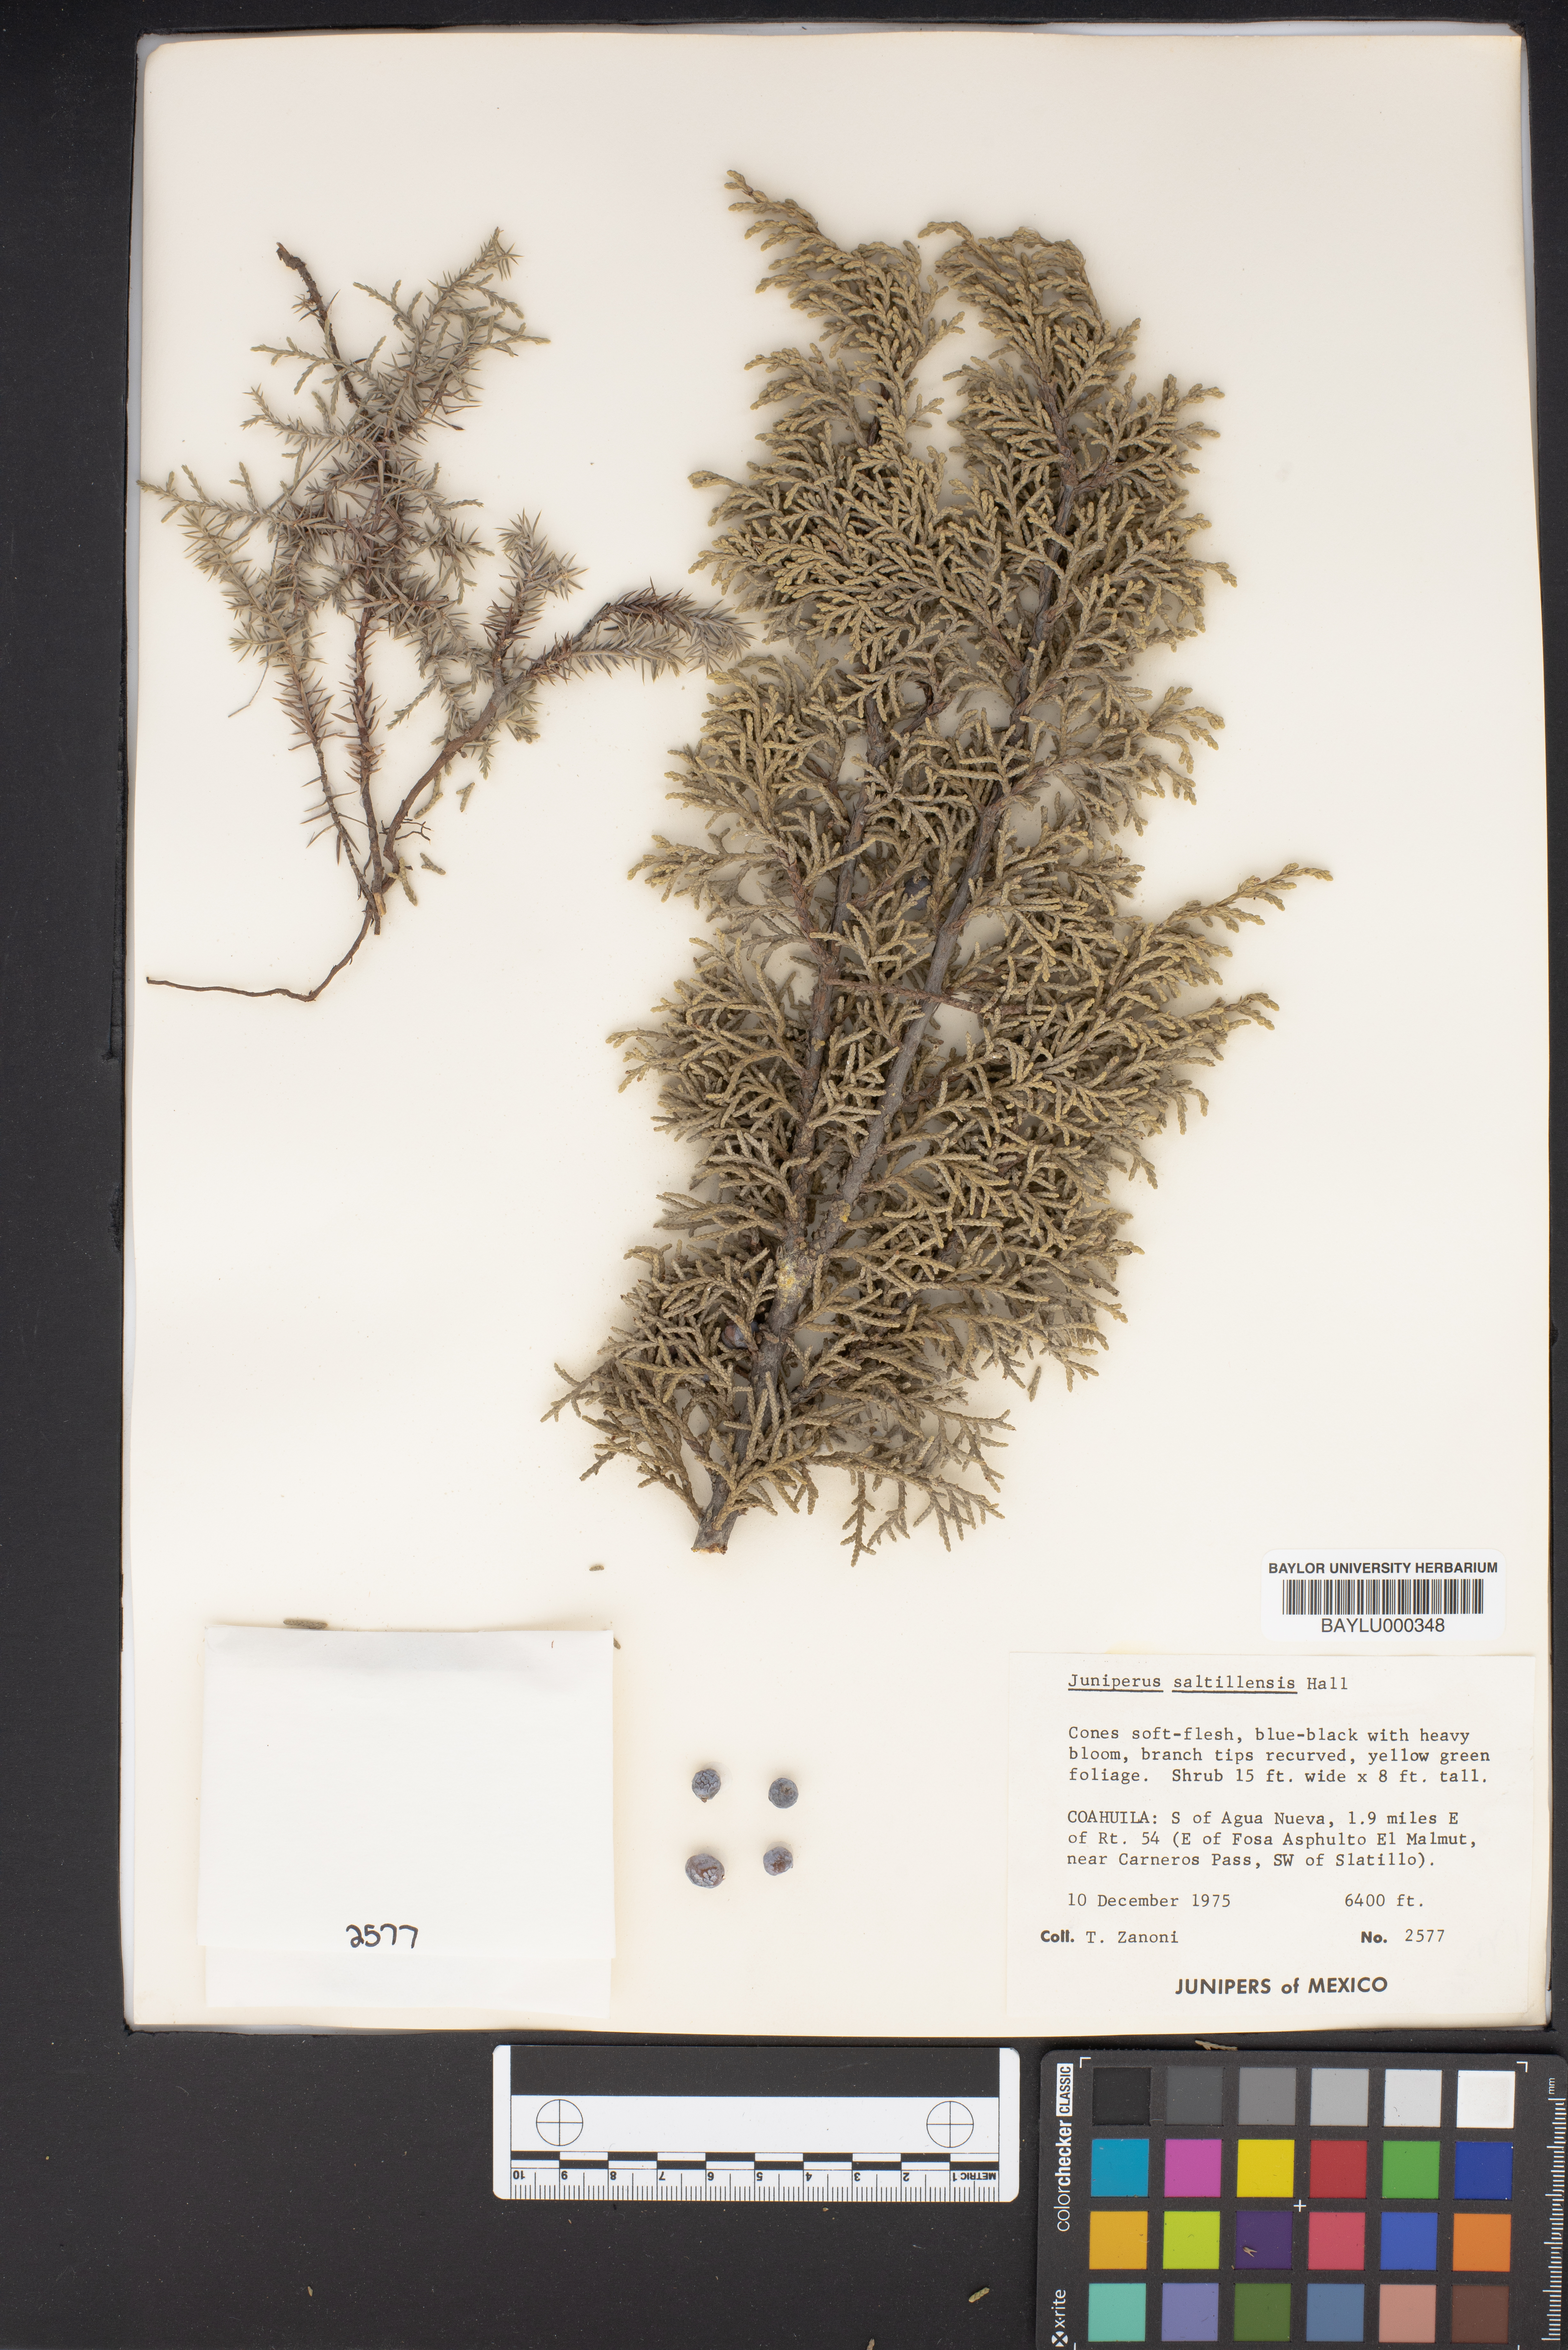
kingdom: Plantae
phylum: Tracheophyta
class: Pinopsida
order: Pinales
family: Cupressaceae
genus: Juniperus
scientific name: Juniperus saltillensis
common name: Saltillo juniper
